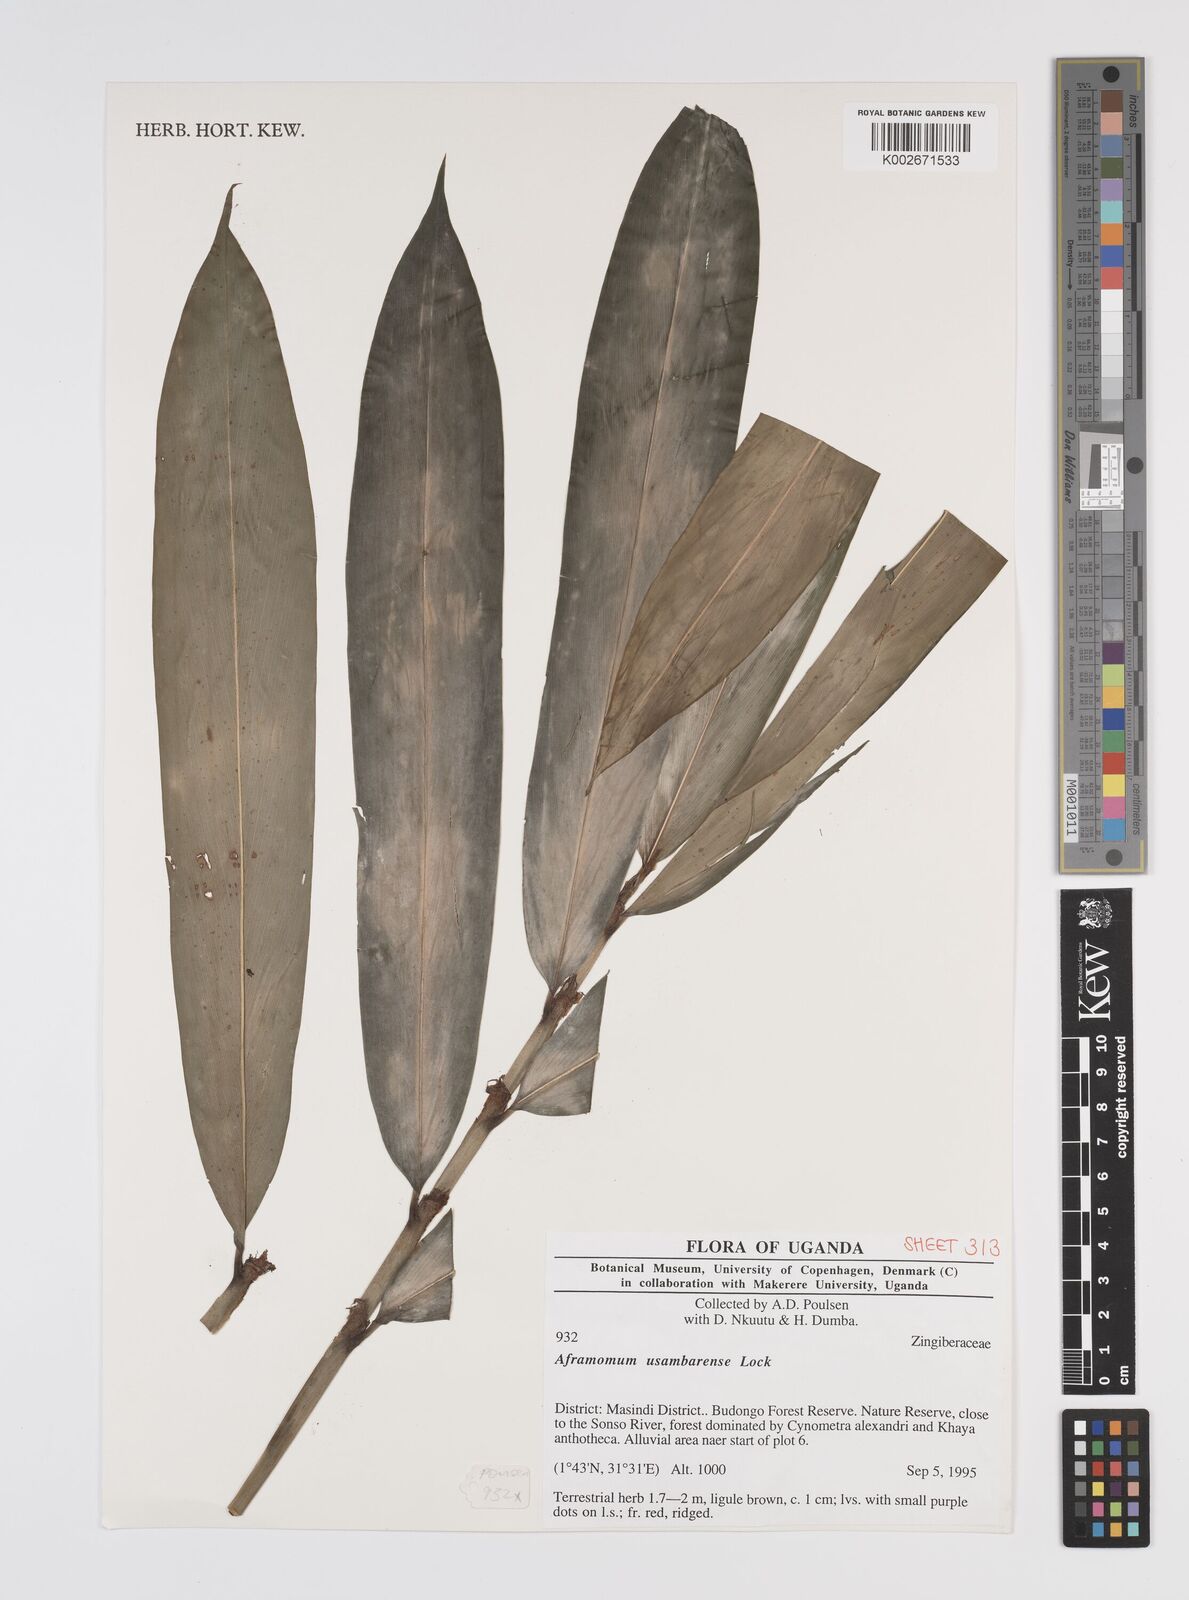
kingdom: Plantae
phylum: Tracheophyta
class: Liliopsida
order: Zingiberales
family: Zingiberaceae
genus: Aframomum
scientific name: Aframomum corrorima
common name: Ethiopian cardamom
